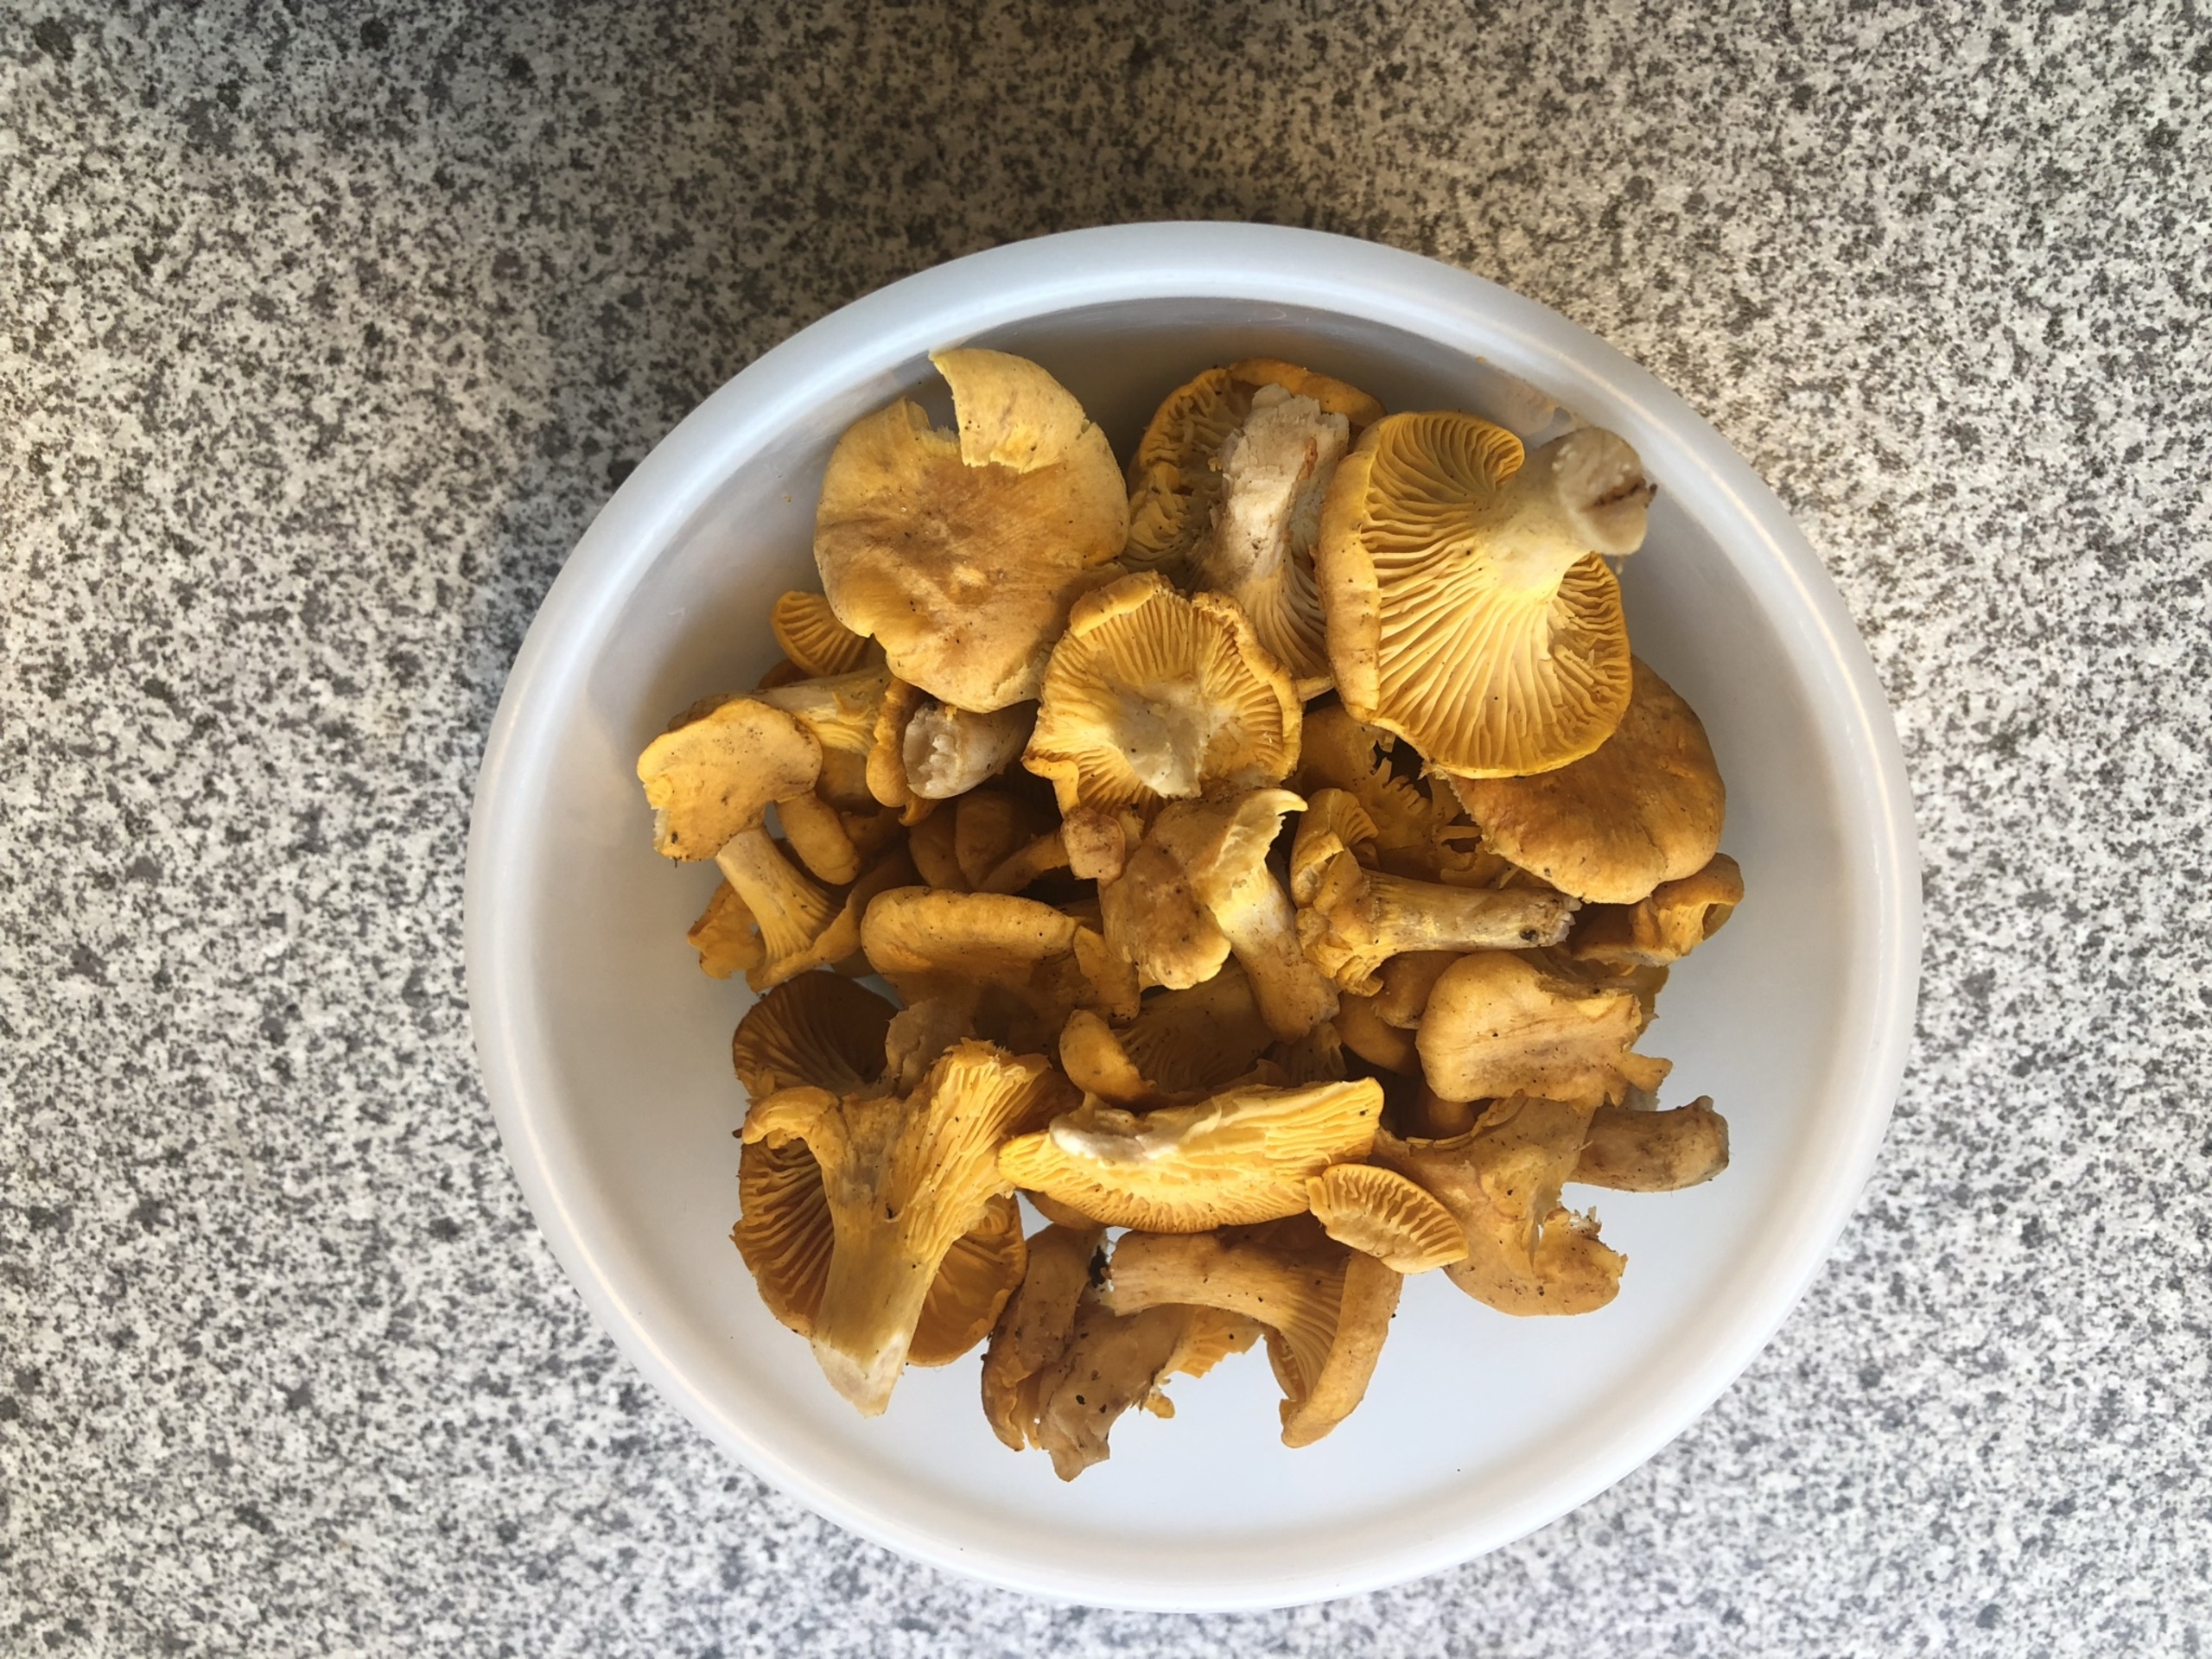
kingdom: Fungi
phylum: Basidiomycota
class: Agaricomycetes
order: Cantharellales
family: Hydnaceae
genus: Cantharellus
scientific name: Cantharellus cibarius
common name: Almindelig kantarel
